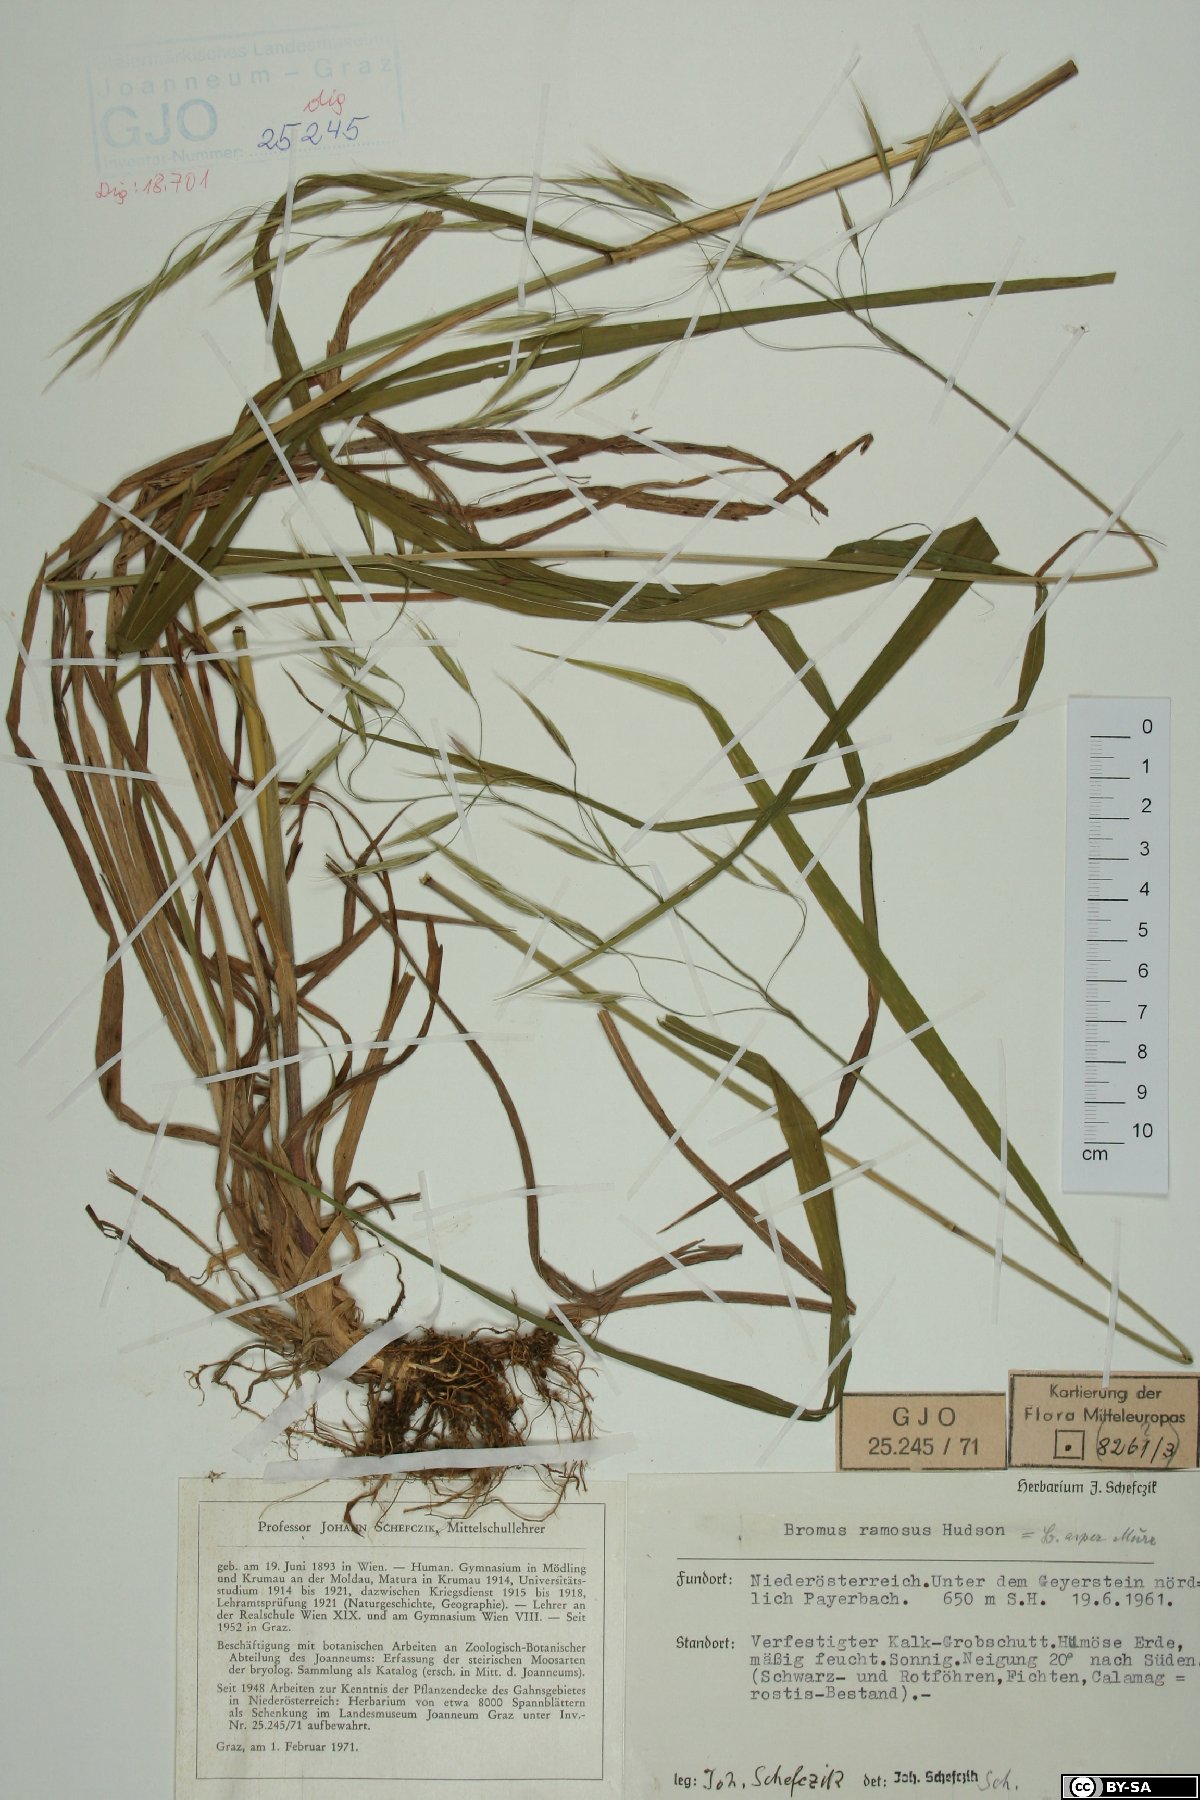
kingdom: Plantae
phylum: Tracheophyta
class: Liliopsida
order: Poales
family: Poaceae
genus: Bromus
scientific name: Bromus ramosus
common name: Hairy brome
